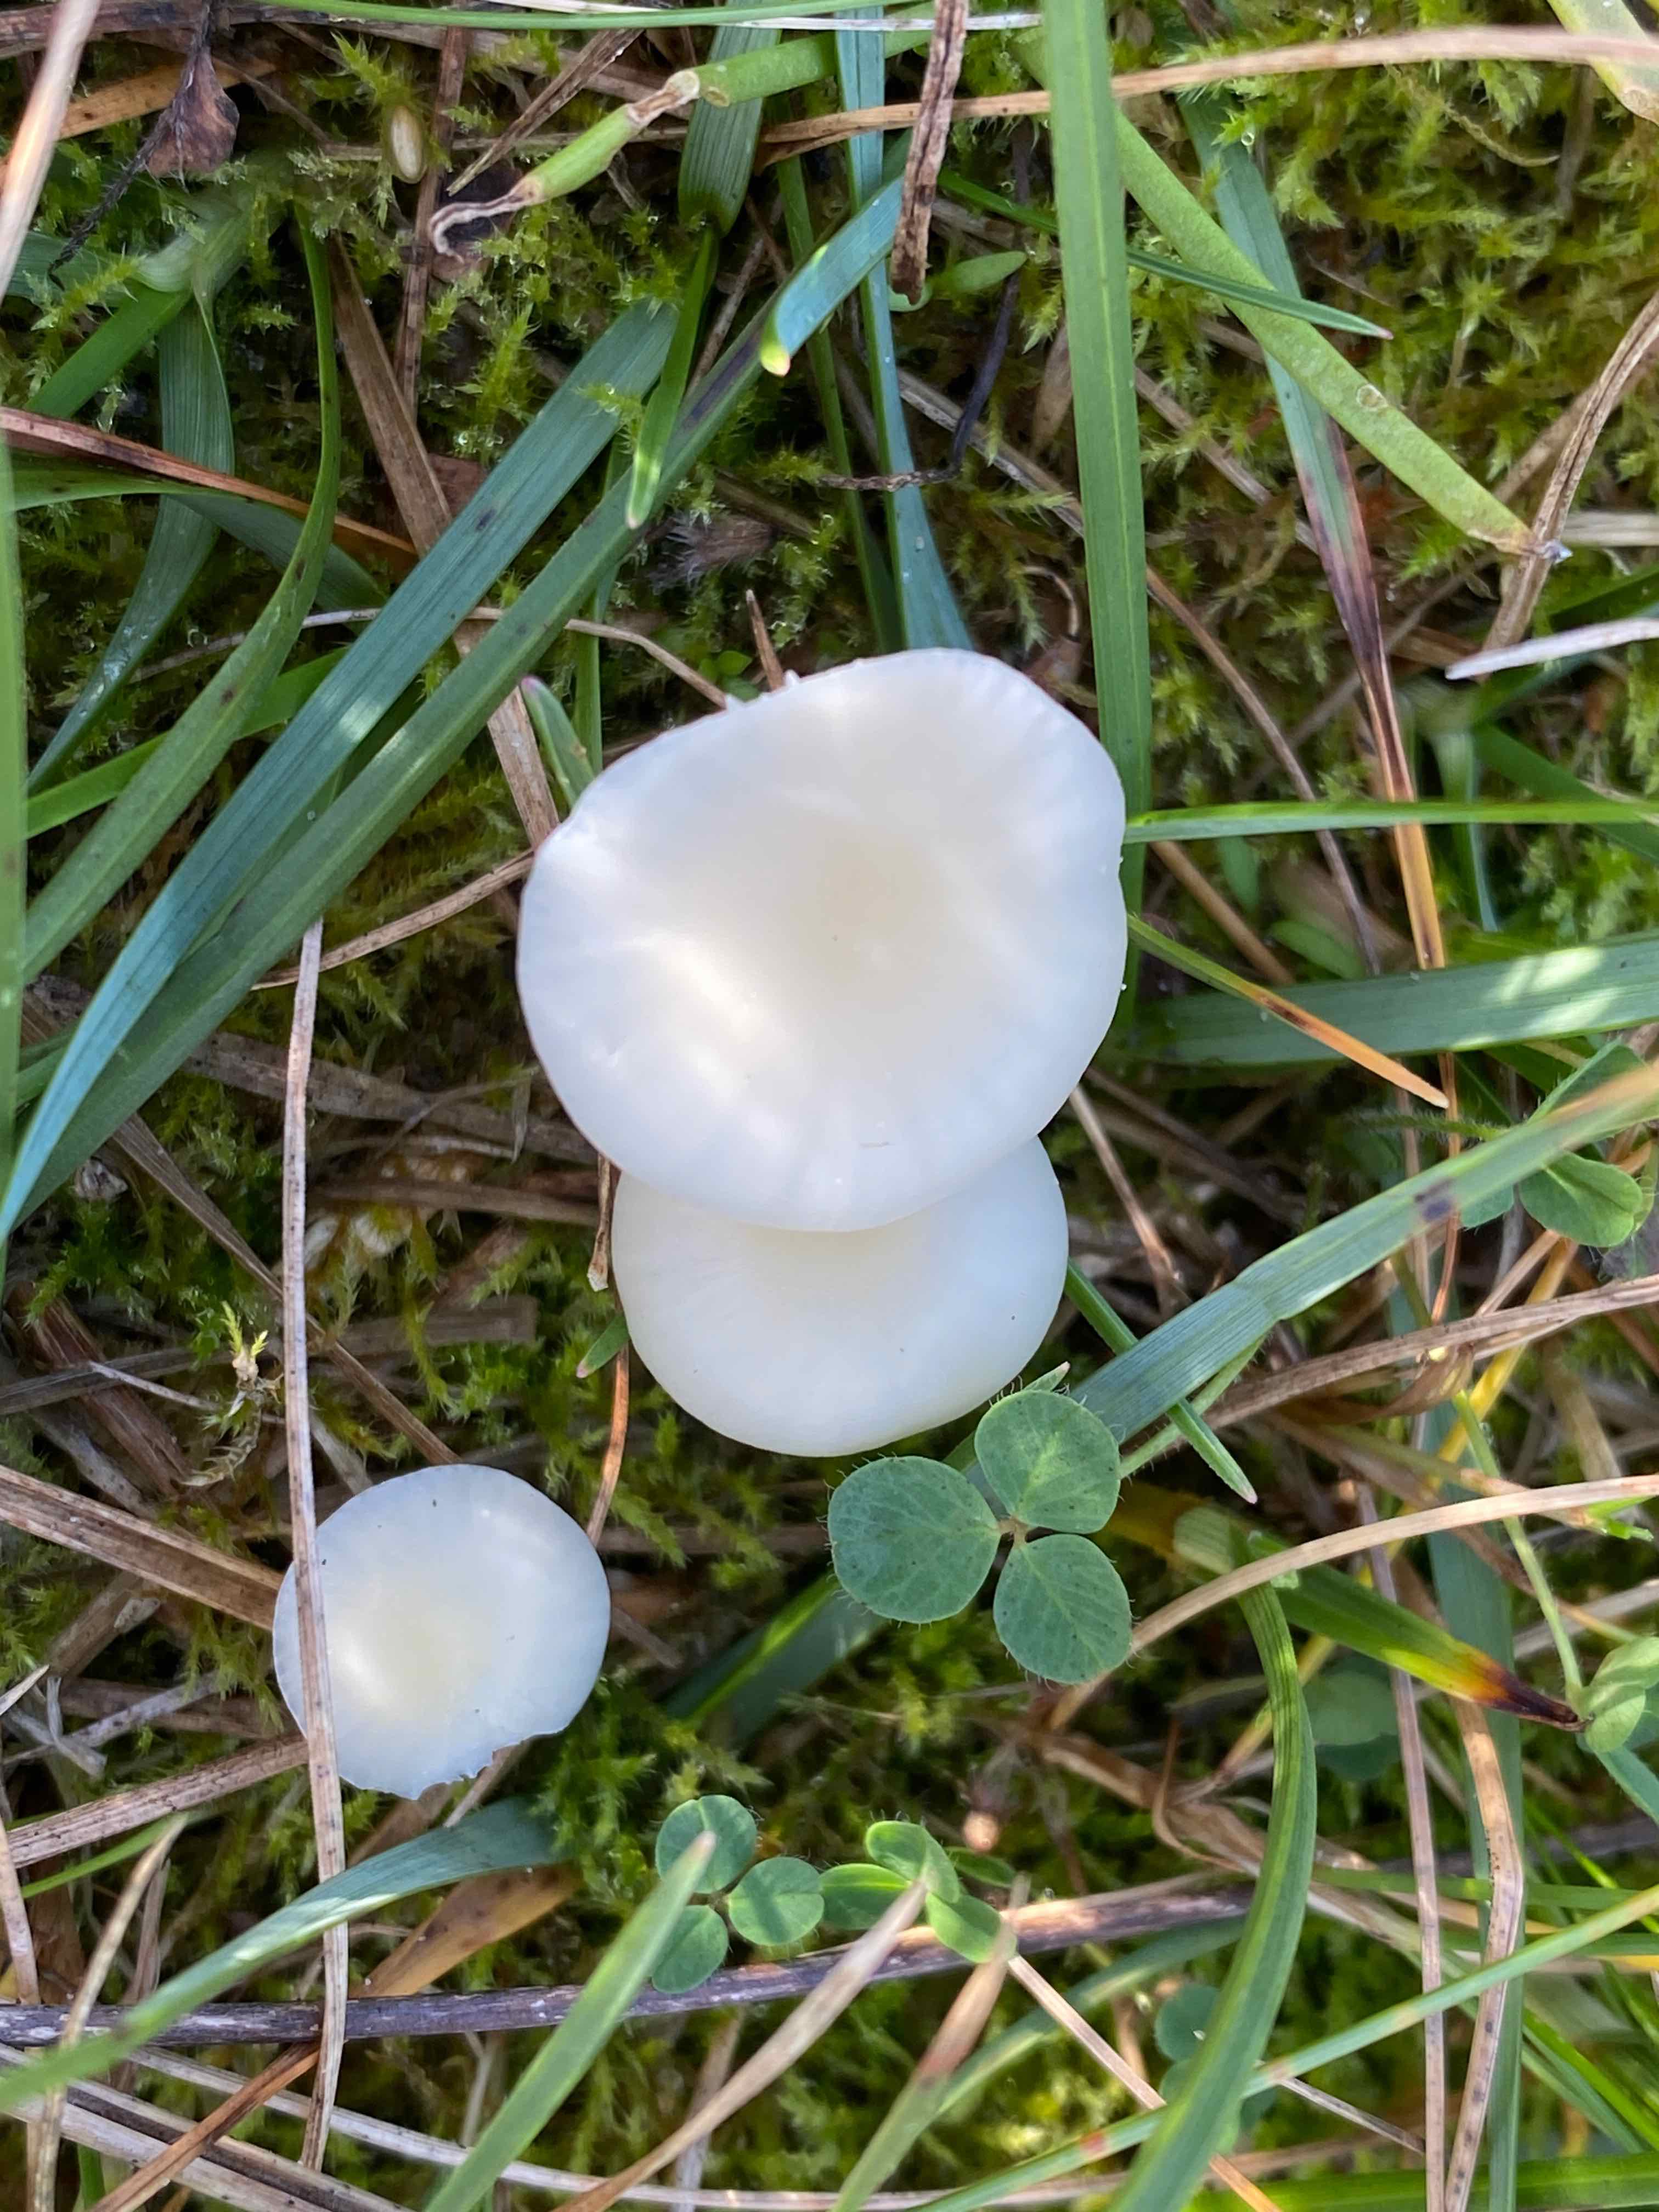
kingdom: Fungi
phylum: Basidiomycota
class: Agaricomycetes
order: Agaricales
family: Hygrophoraceae
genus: Cuphophyllus
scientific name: Cuphophyllus virgineus
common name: snehvid vokshat
